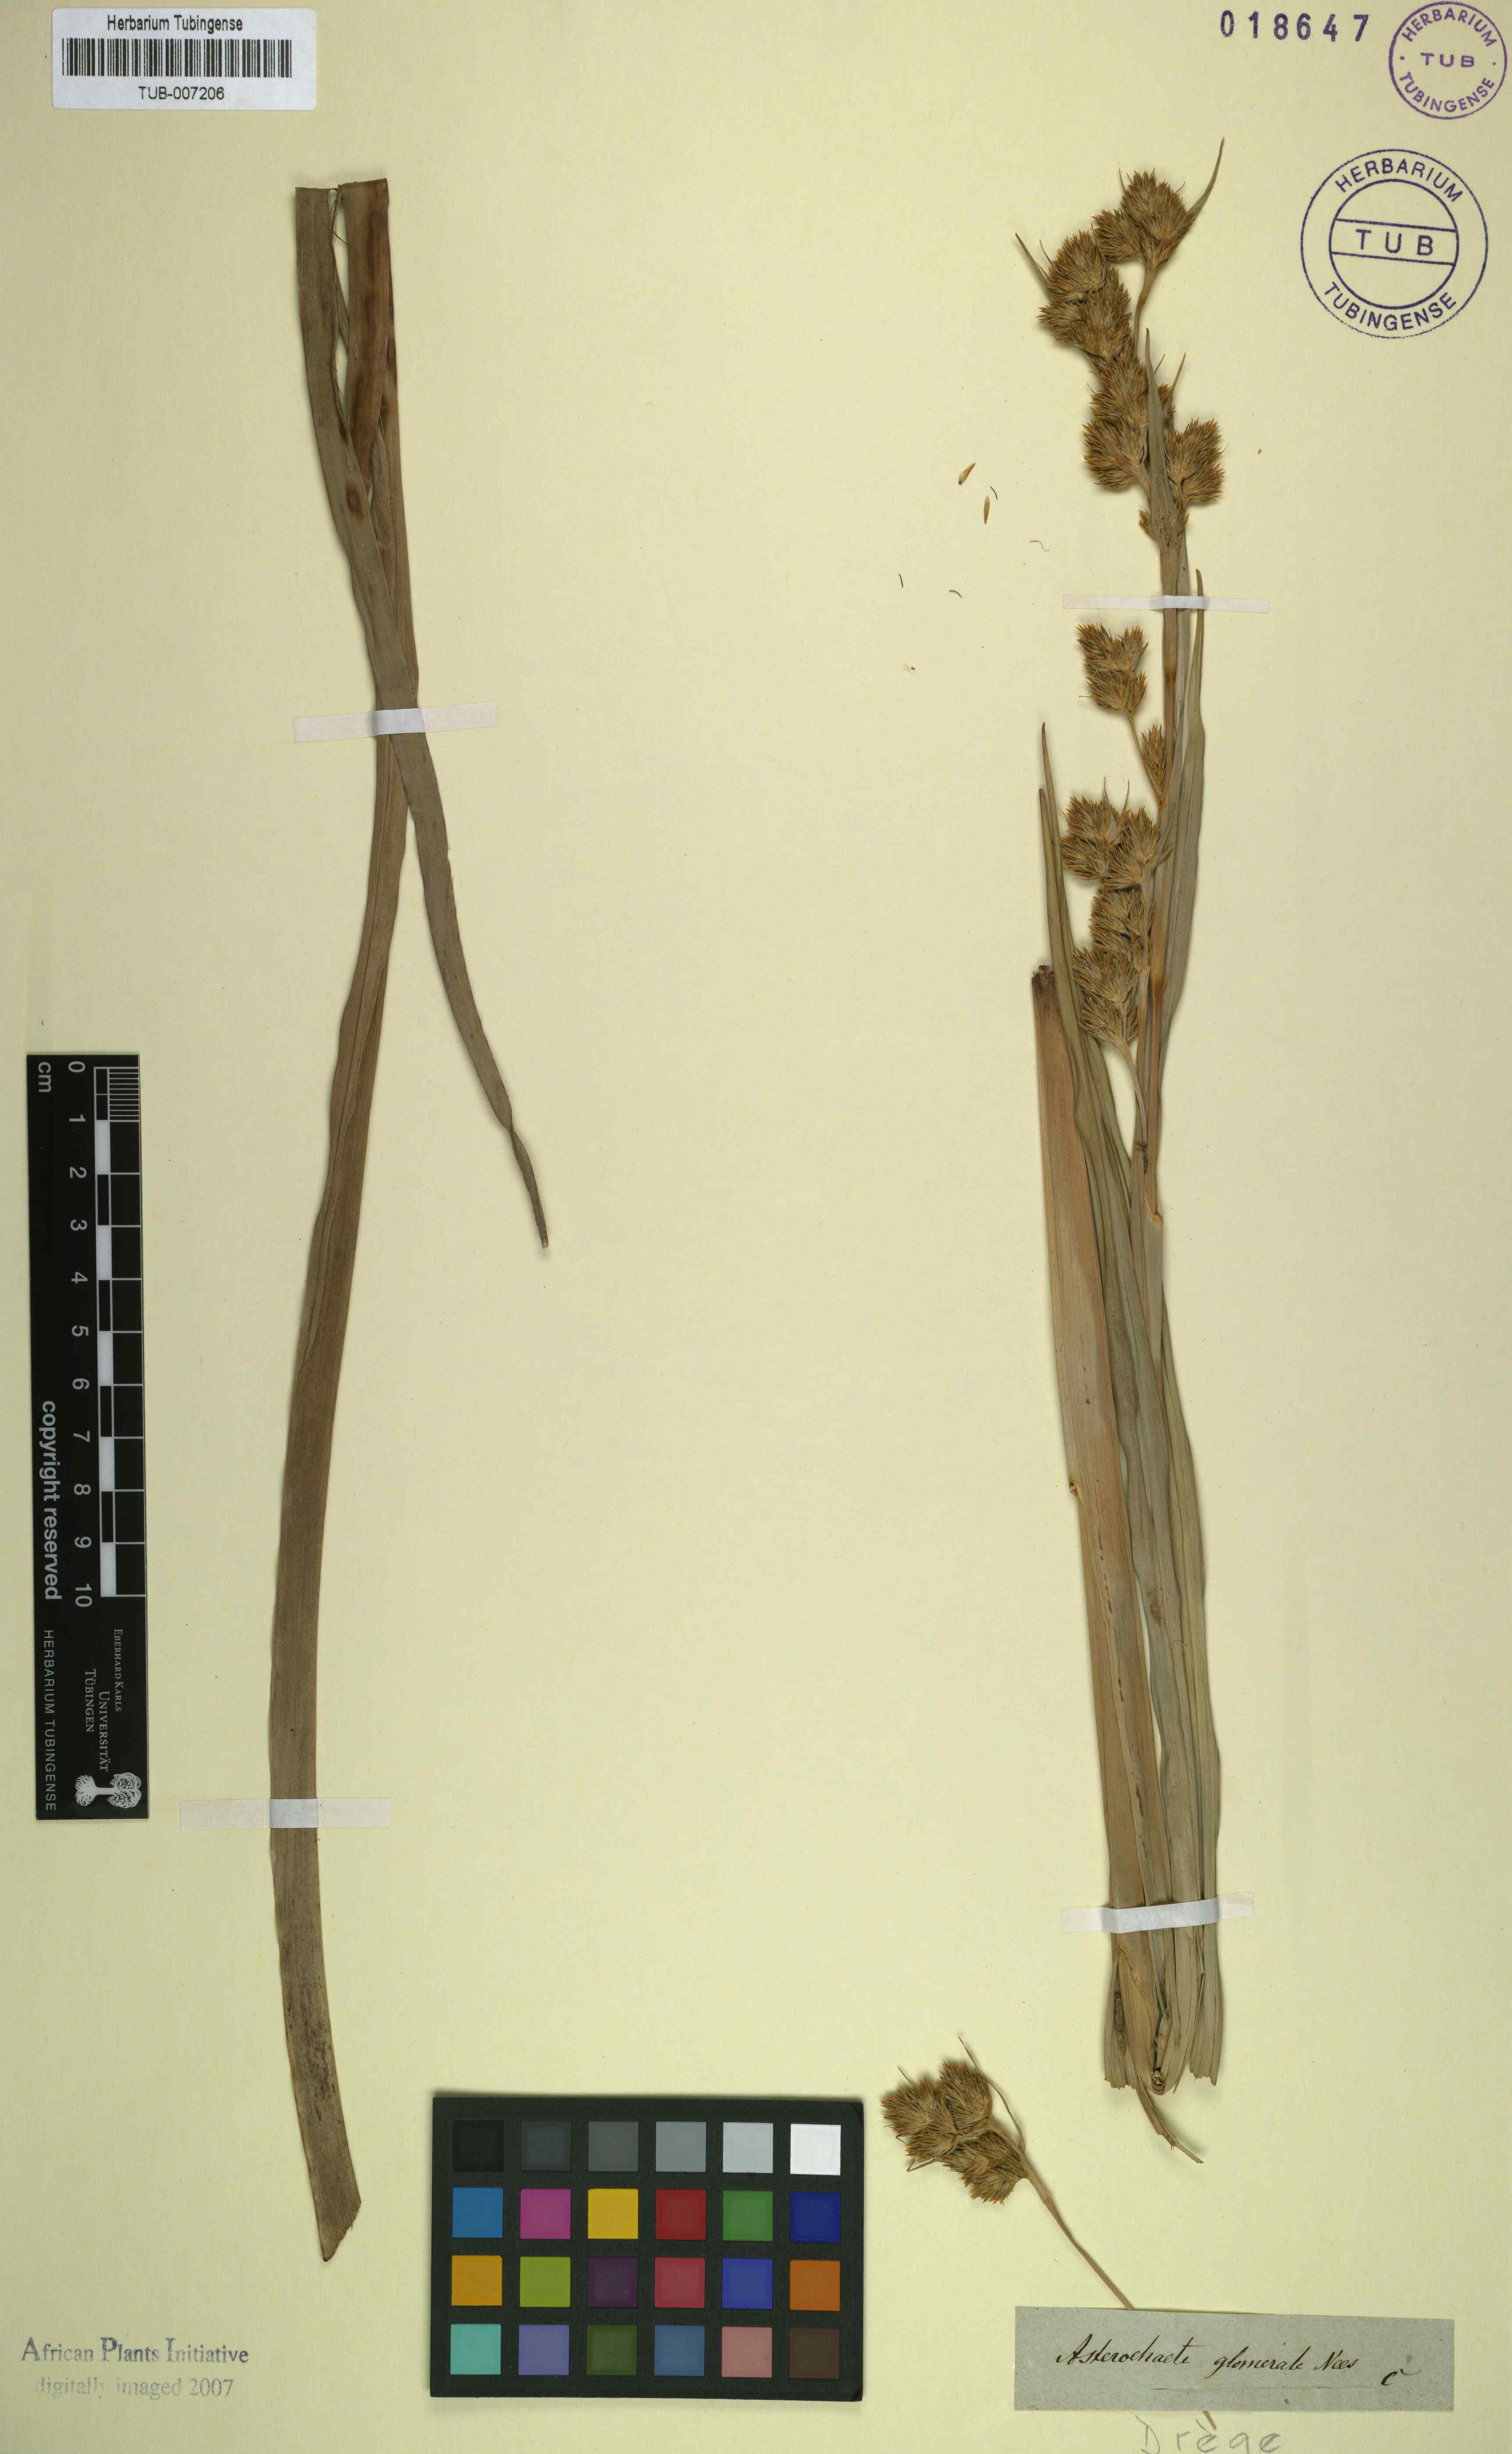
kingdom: Plantae
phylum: Tracheophyta
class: Liliopsida
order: Poales
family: Cyperaceae
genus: Carpha
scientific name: Carpha glomerata
